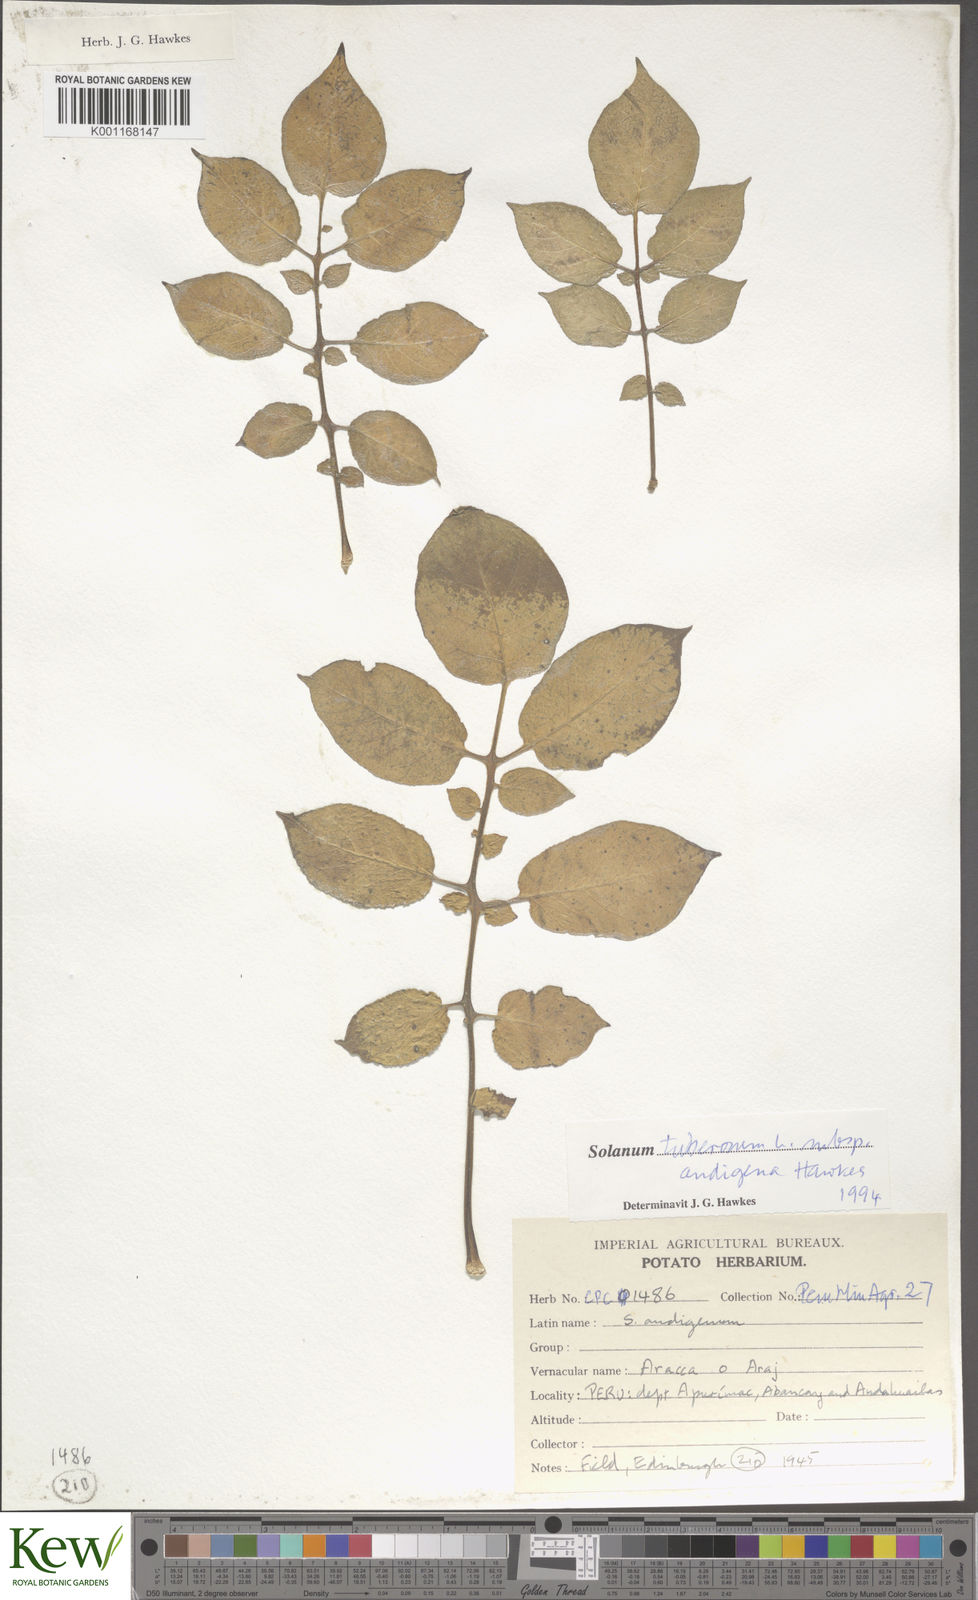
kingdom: Plantae
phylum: Tracheophyta
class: Magnoliopsida
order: Solanales
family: Solanaceae
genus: Solanum
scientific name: Solanum tuberosum
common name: Potato
